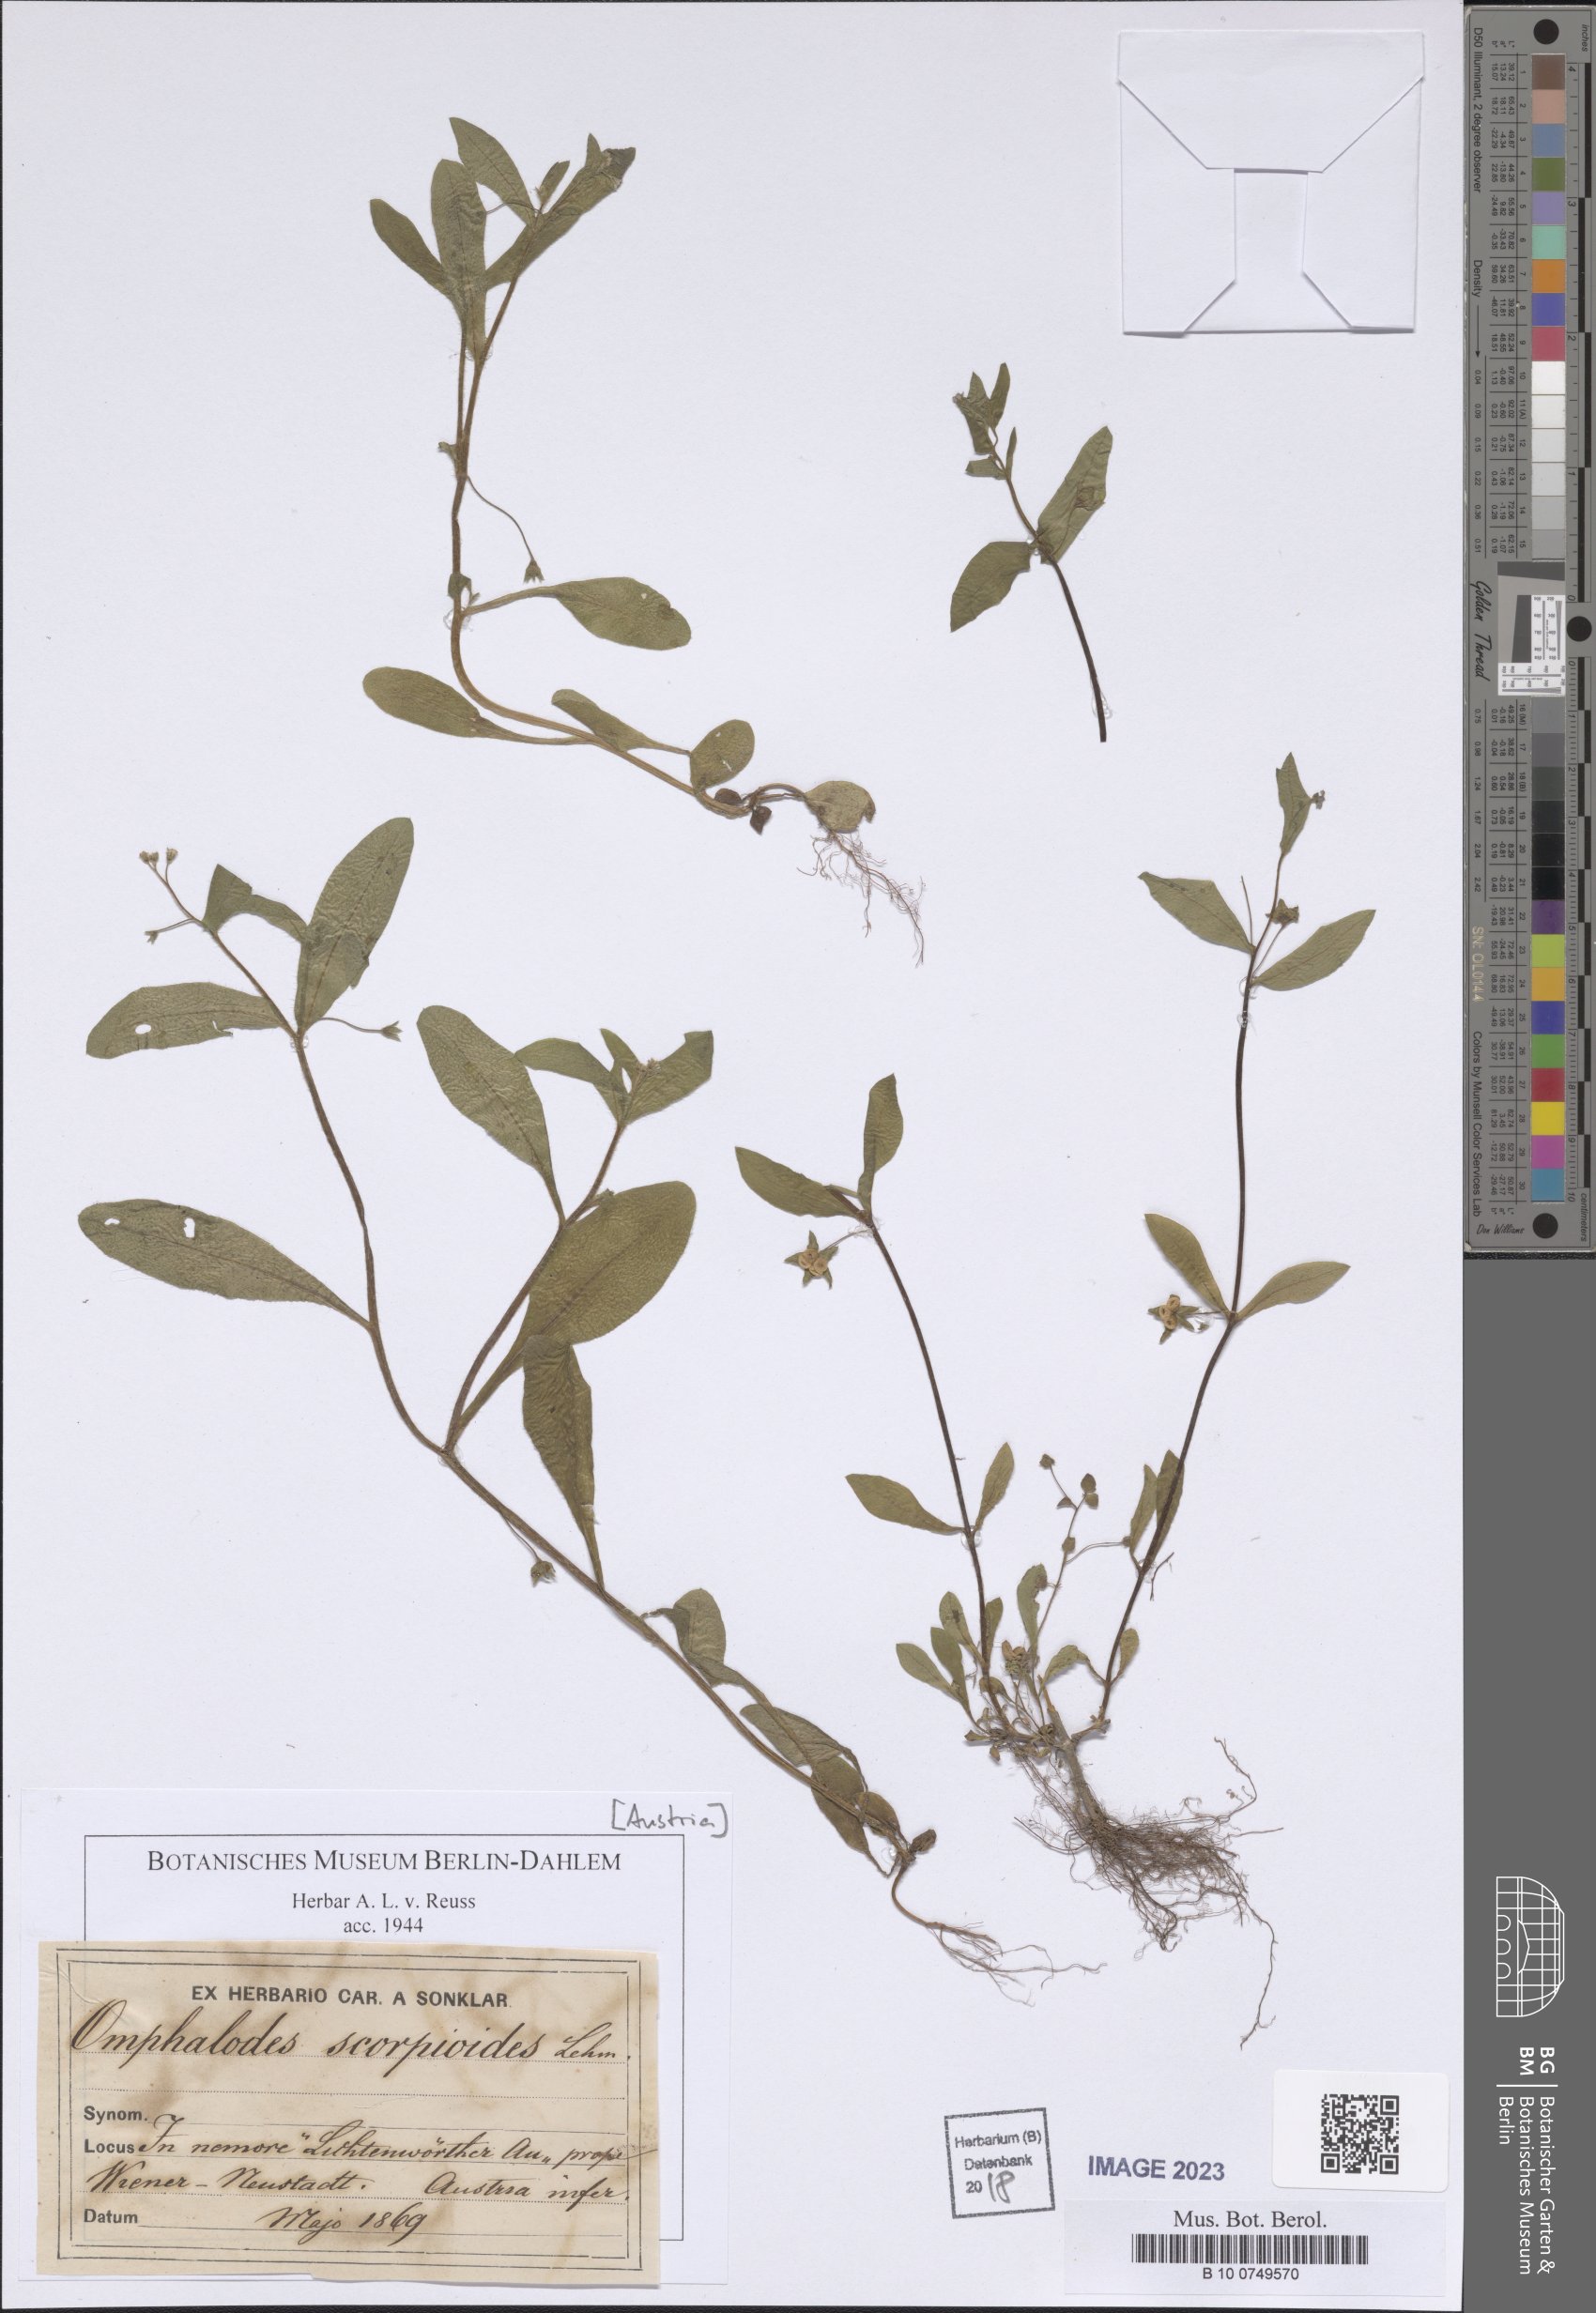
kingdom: Plantae
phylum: Tracheophyta
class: Magnoliopsida
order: Boraginales
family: Boraginaceae
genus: Memoremea
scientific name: Memoremea scorpioides
